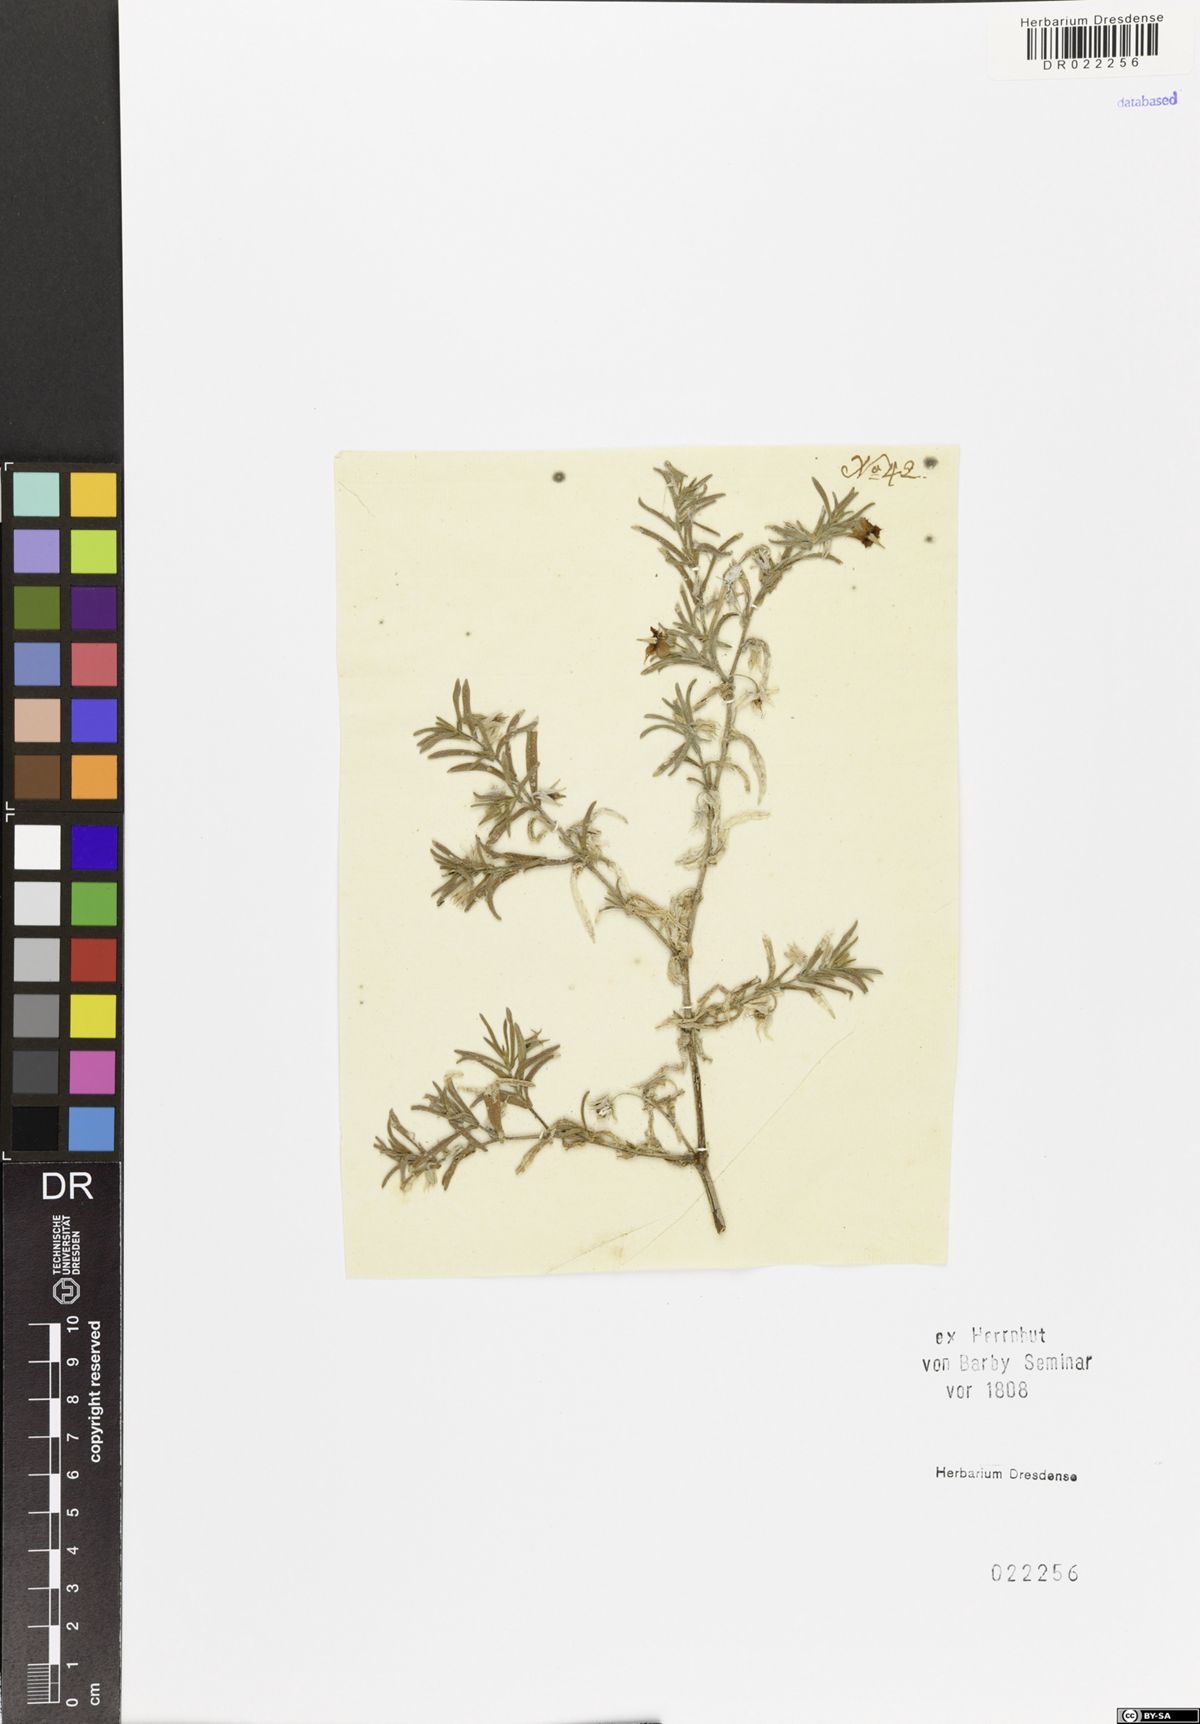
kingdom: Plantae
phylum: Tracheophyta
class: Magnoliopsida
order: Gentianales
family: Asclepiadaceae
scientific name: Asclepiadaceae
